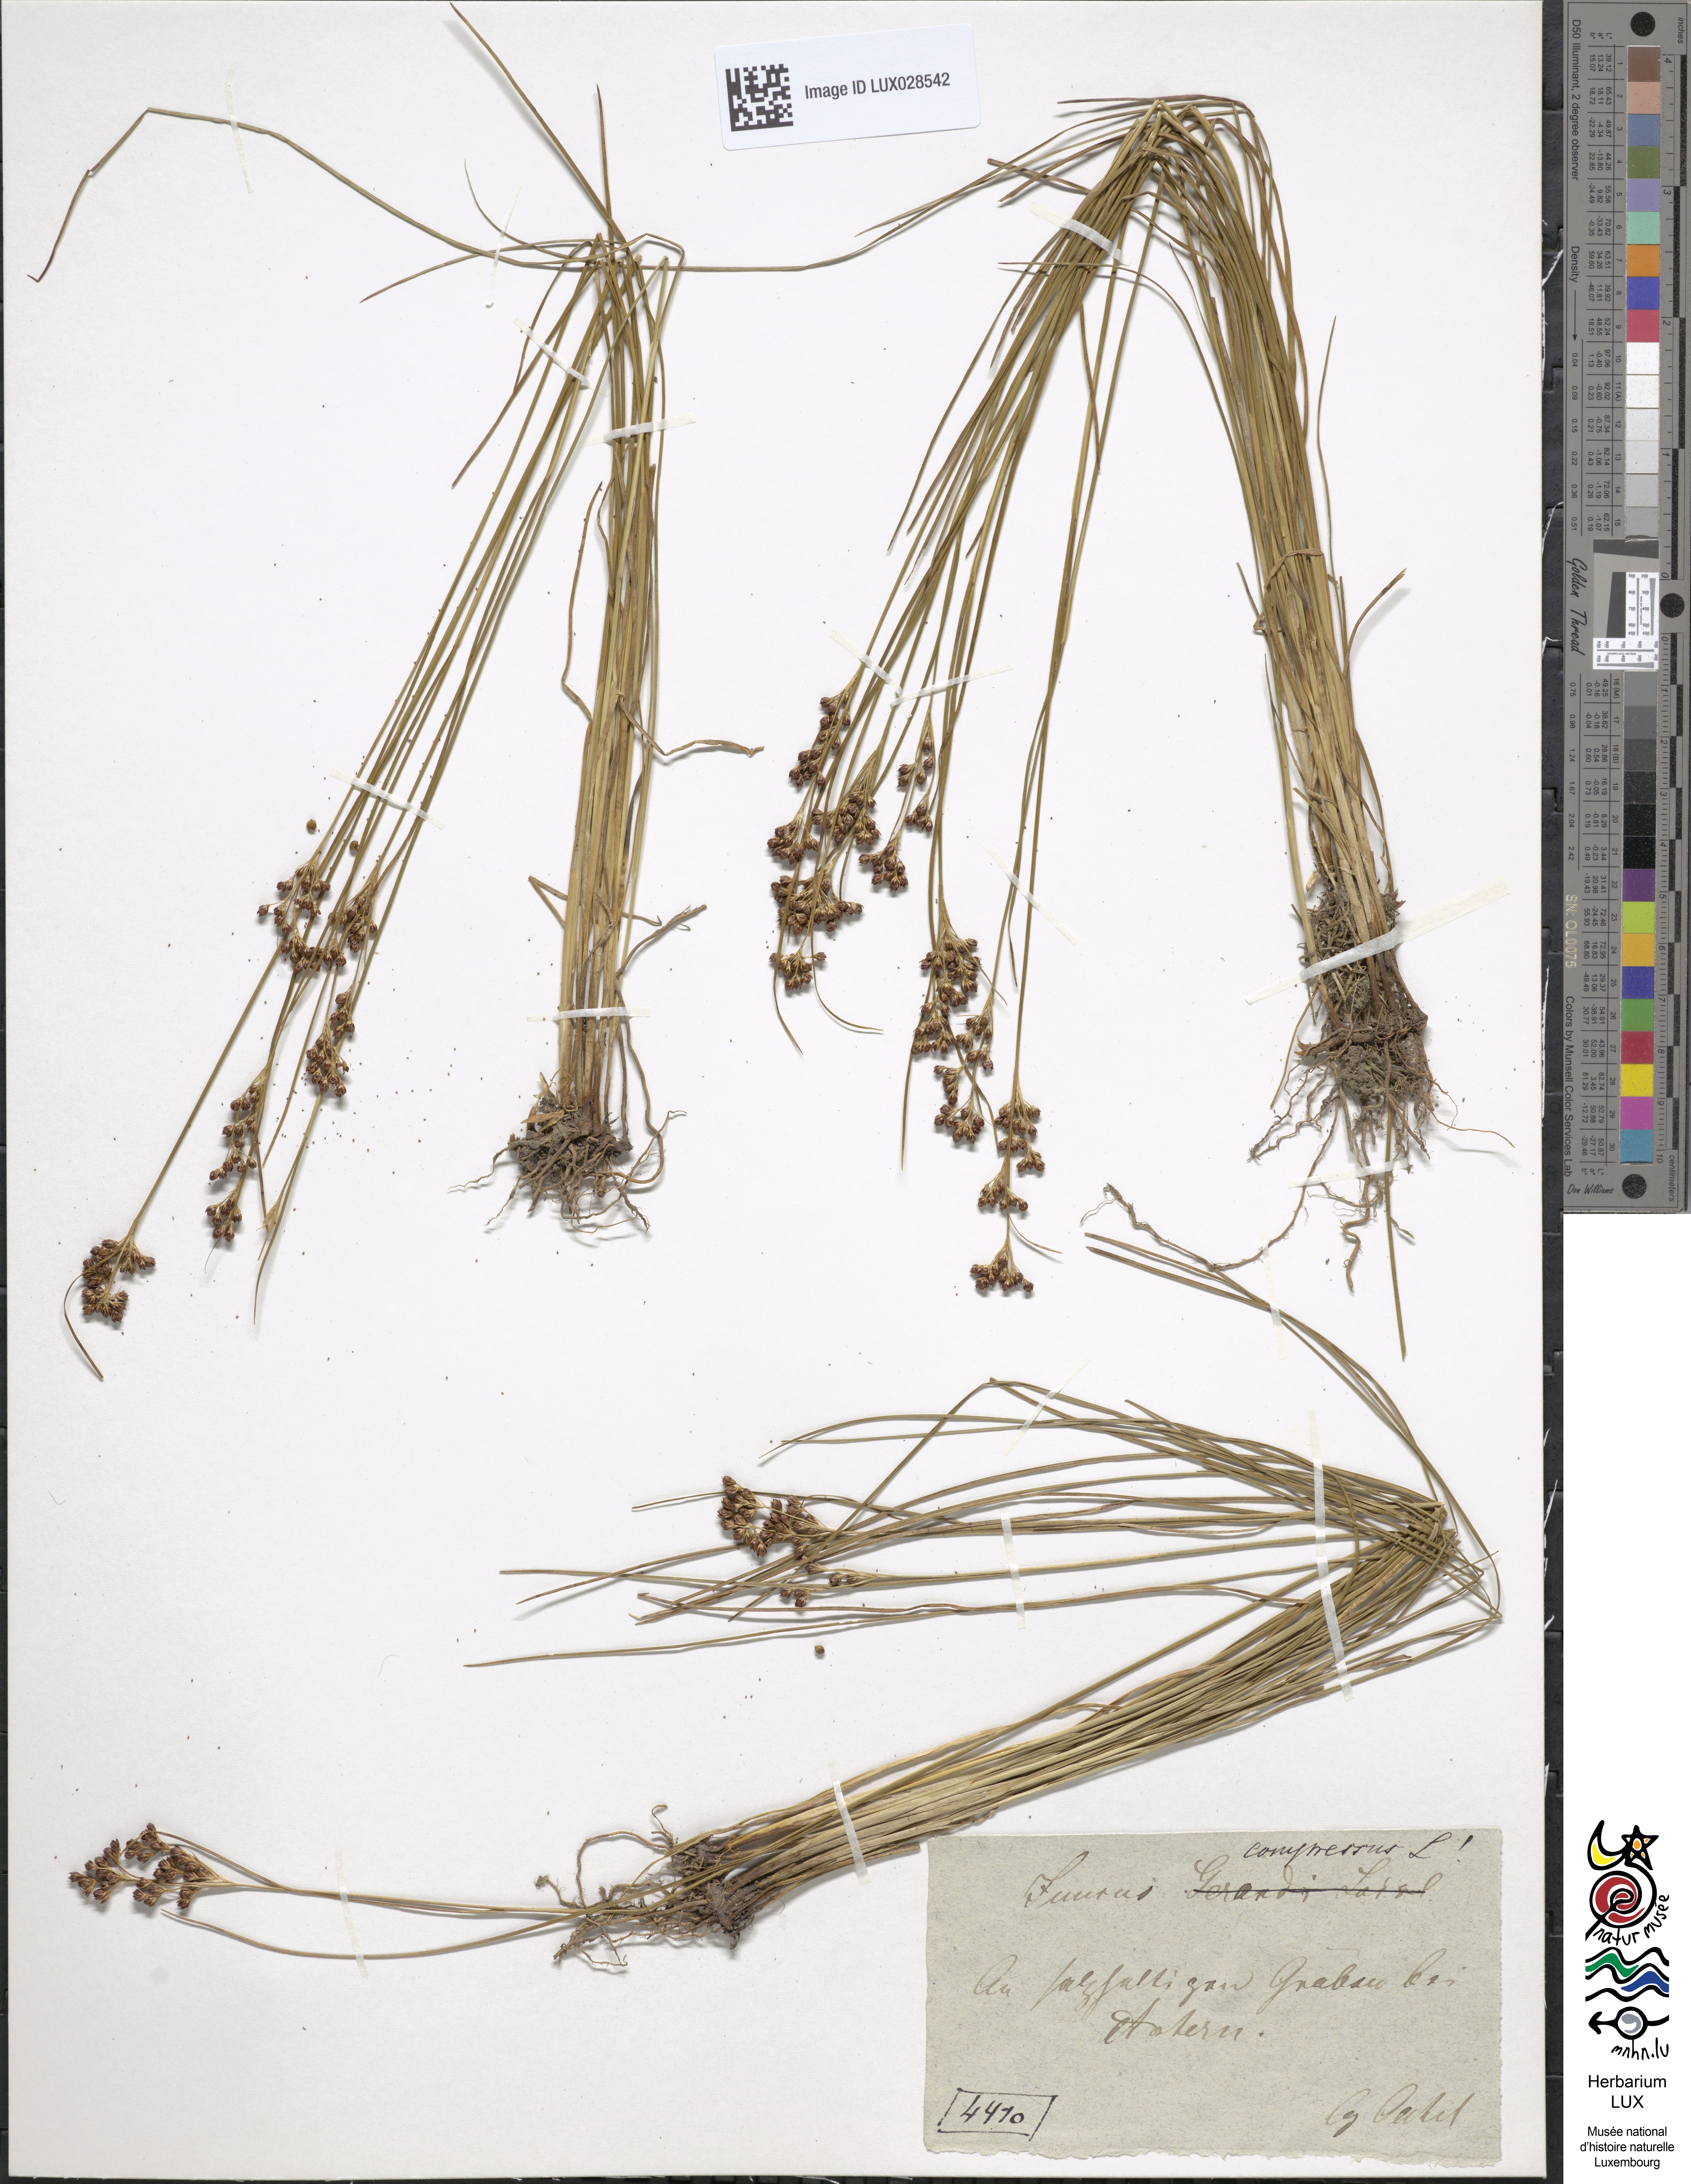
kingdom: Plantae
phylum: Tracheophyta
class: Liliopsida
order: Poales
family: Juncaceae
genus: Juncus
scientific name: Juncus compressus
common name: Round-fruited rush
